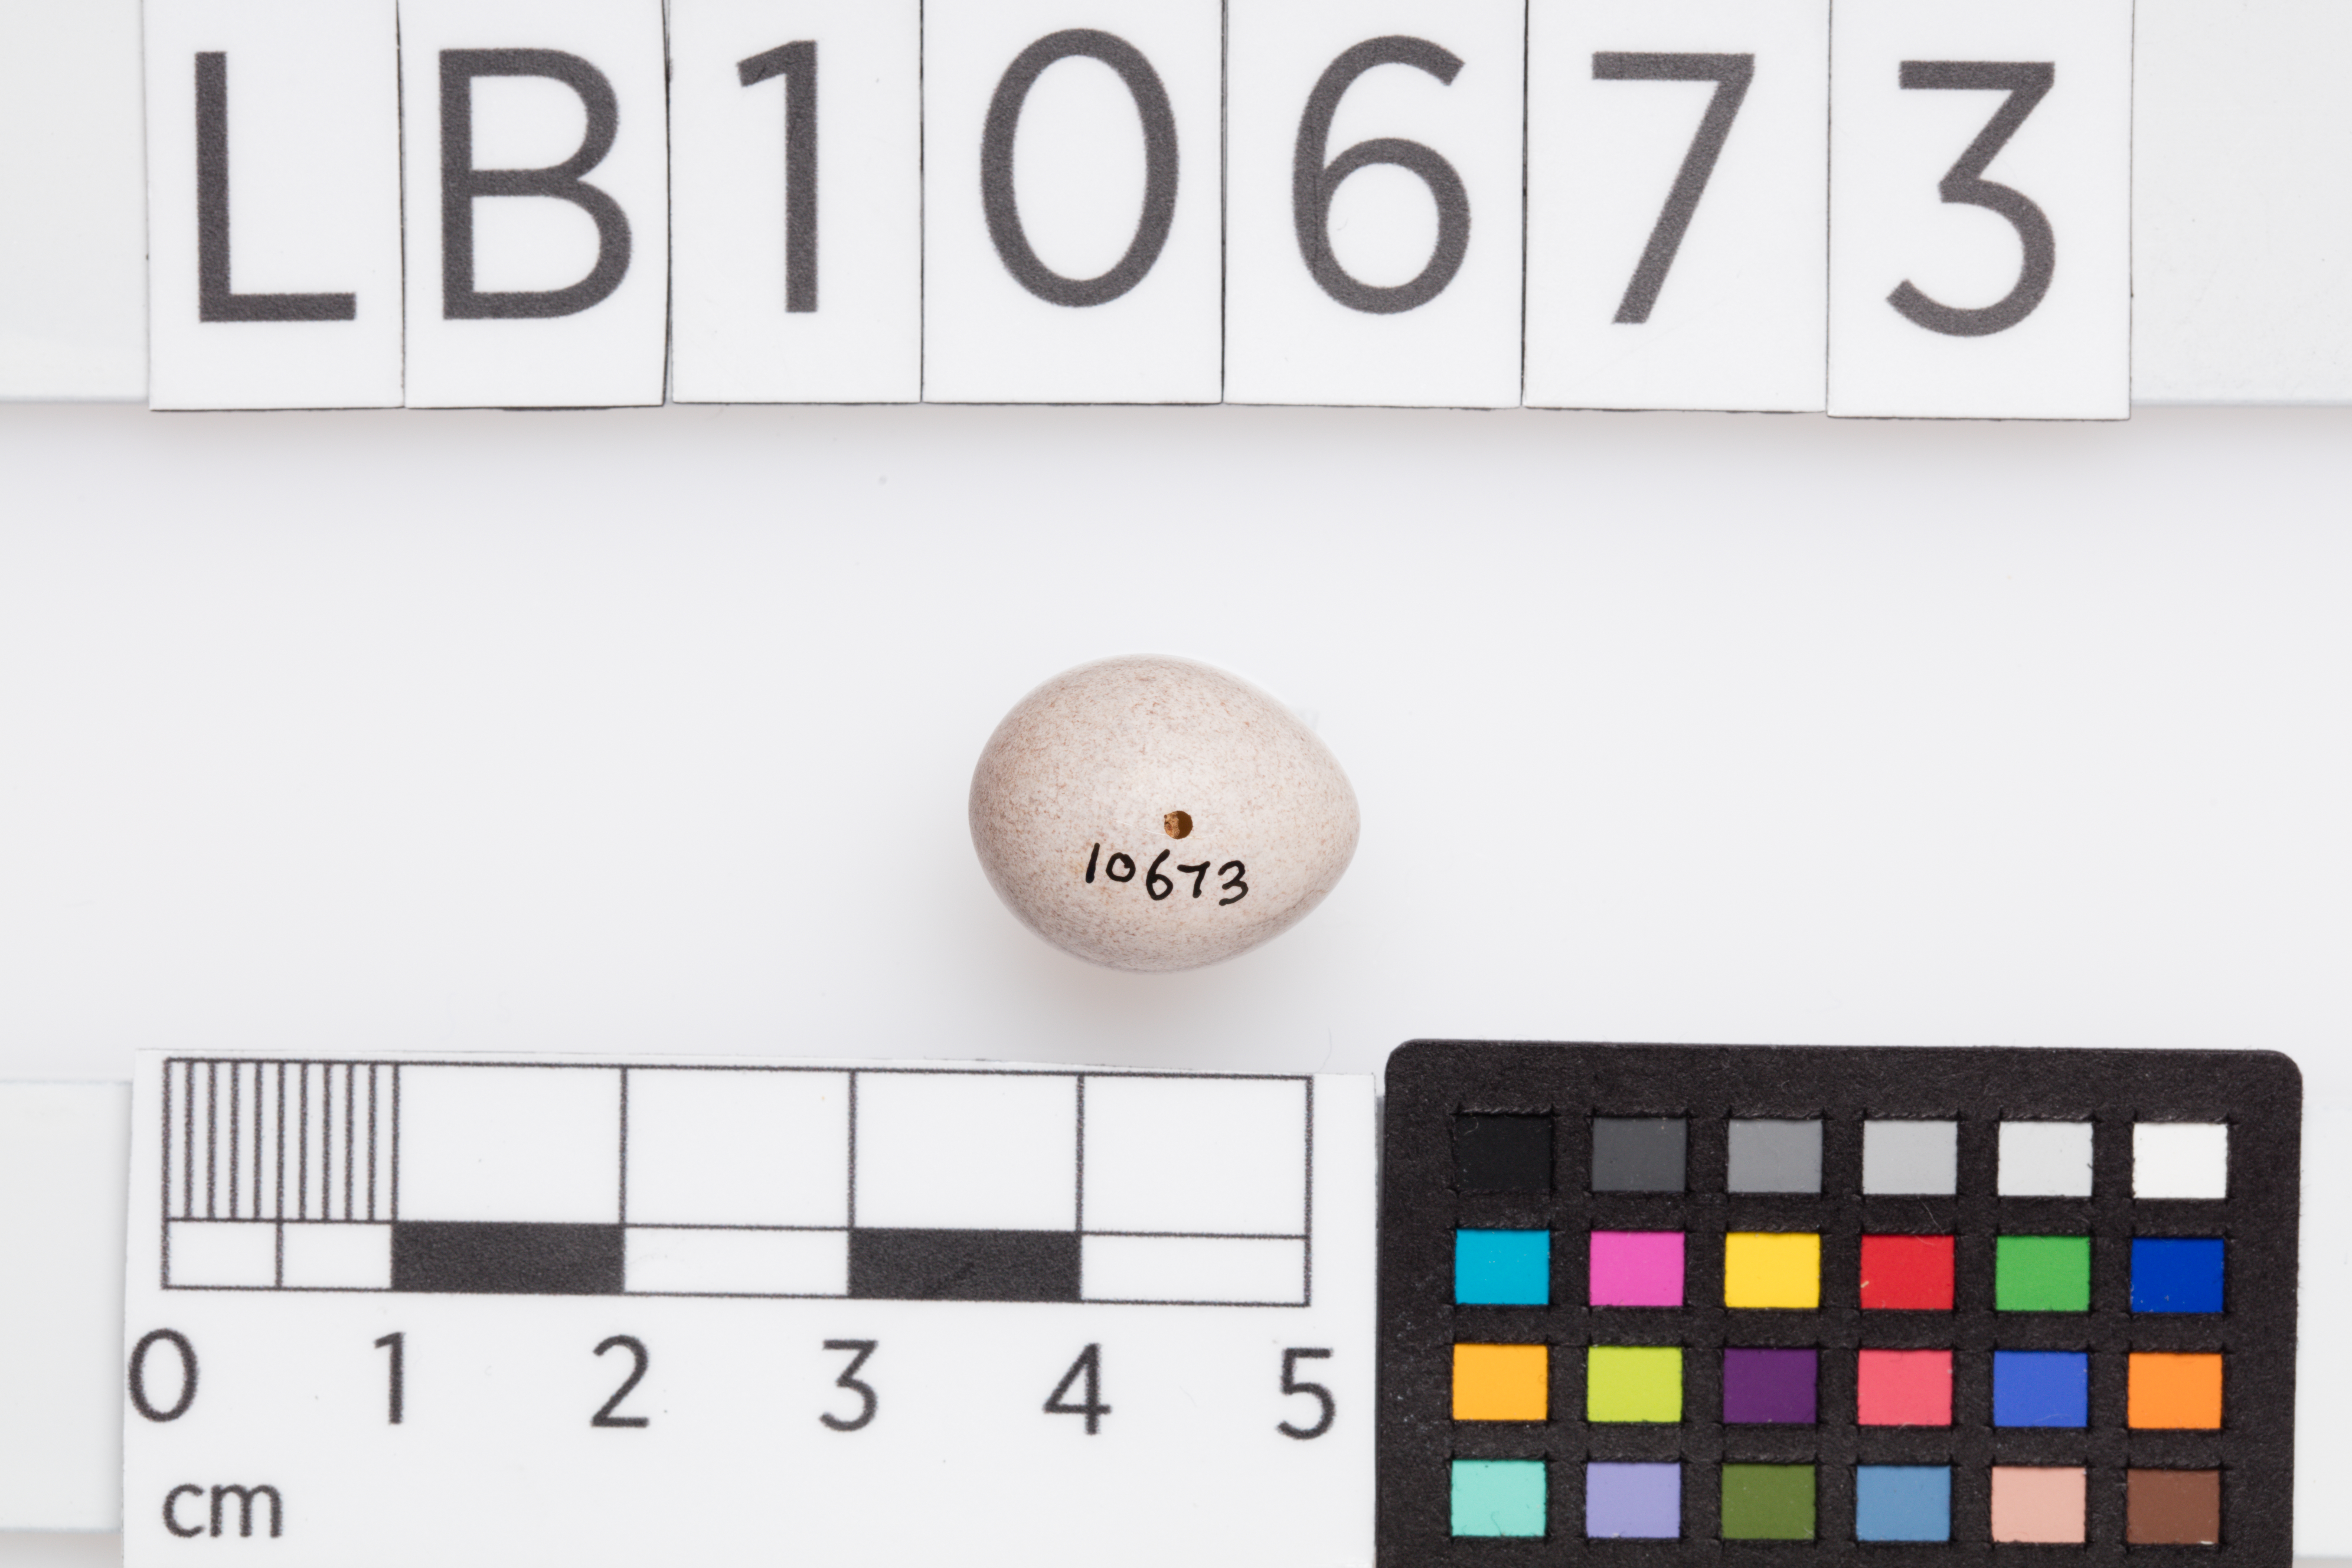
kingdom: Animalia
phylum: Chordata
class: Aves
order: Passeriformes
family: Locustellidae
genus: Locustella
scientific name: Locustella naevia
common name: Common grasshopper warbler
